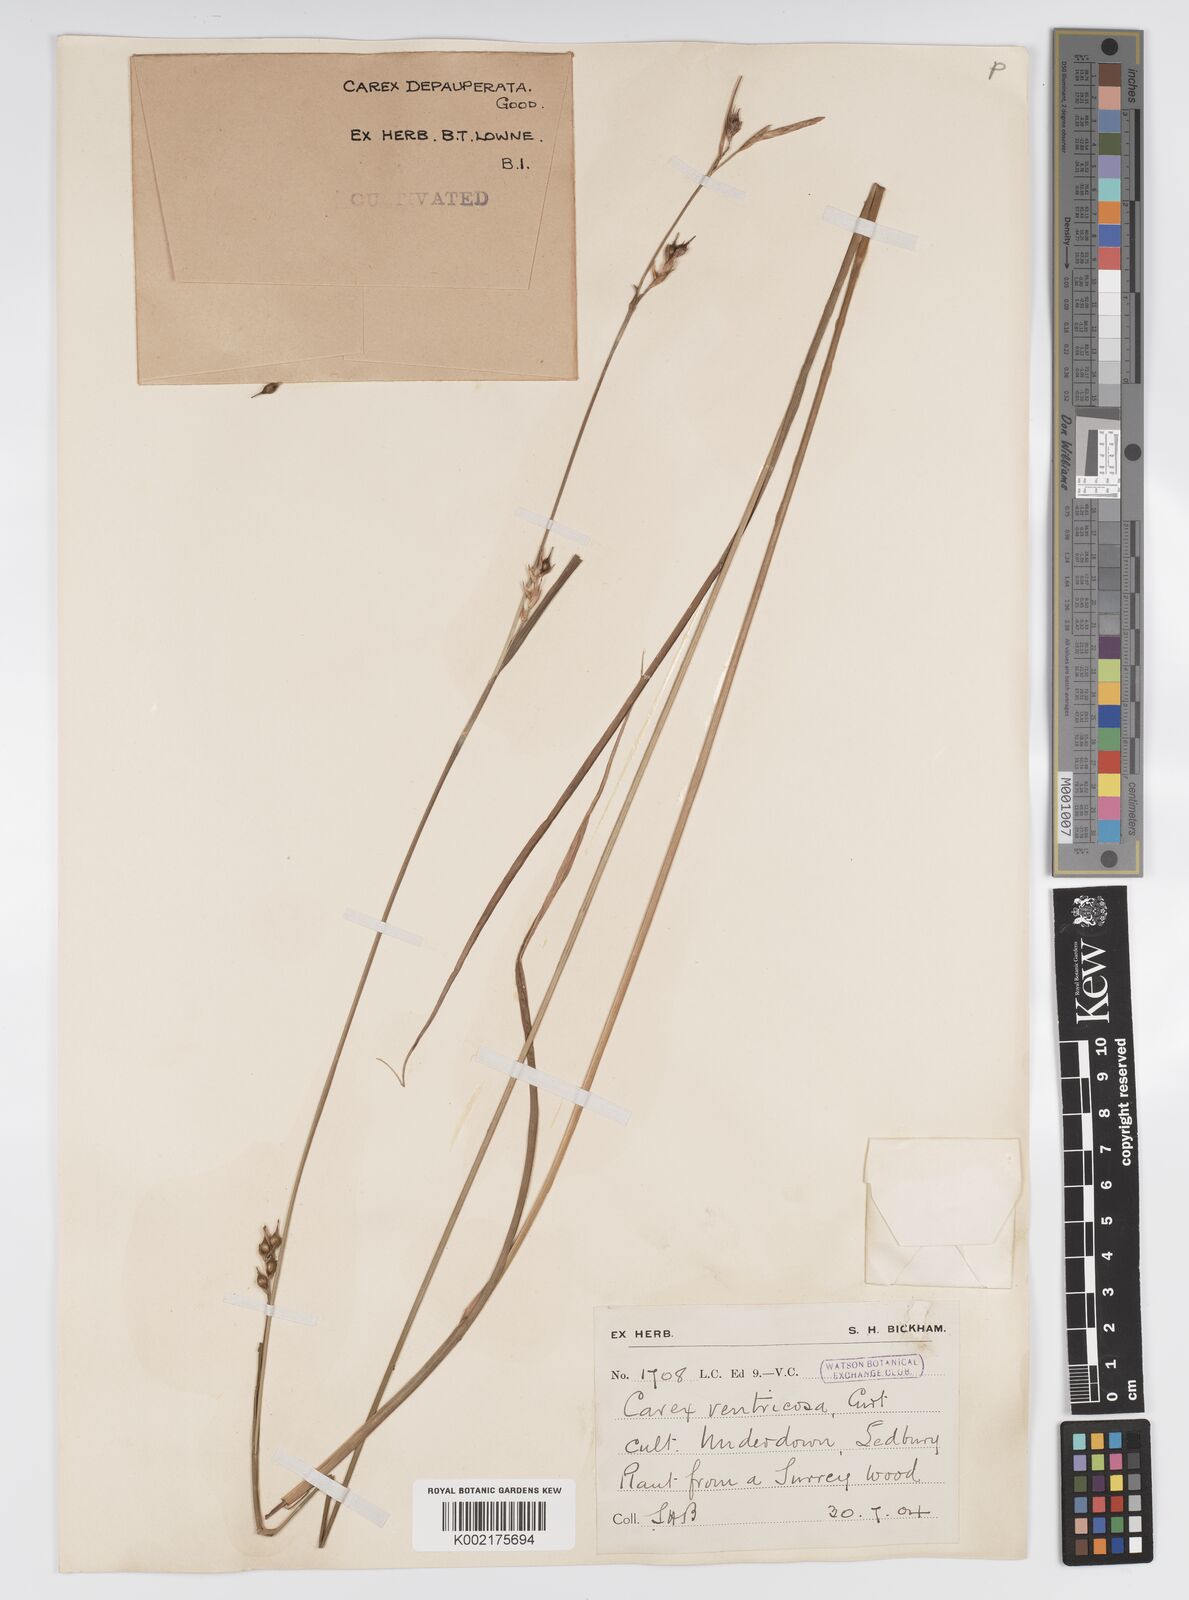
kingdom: Plantae
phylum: Tracheophyta
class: Liliopsida
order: Poales
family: Cyperaceae
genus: Carex
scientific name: Carex vaginata
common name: Sheathed sedge
